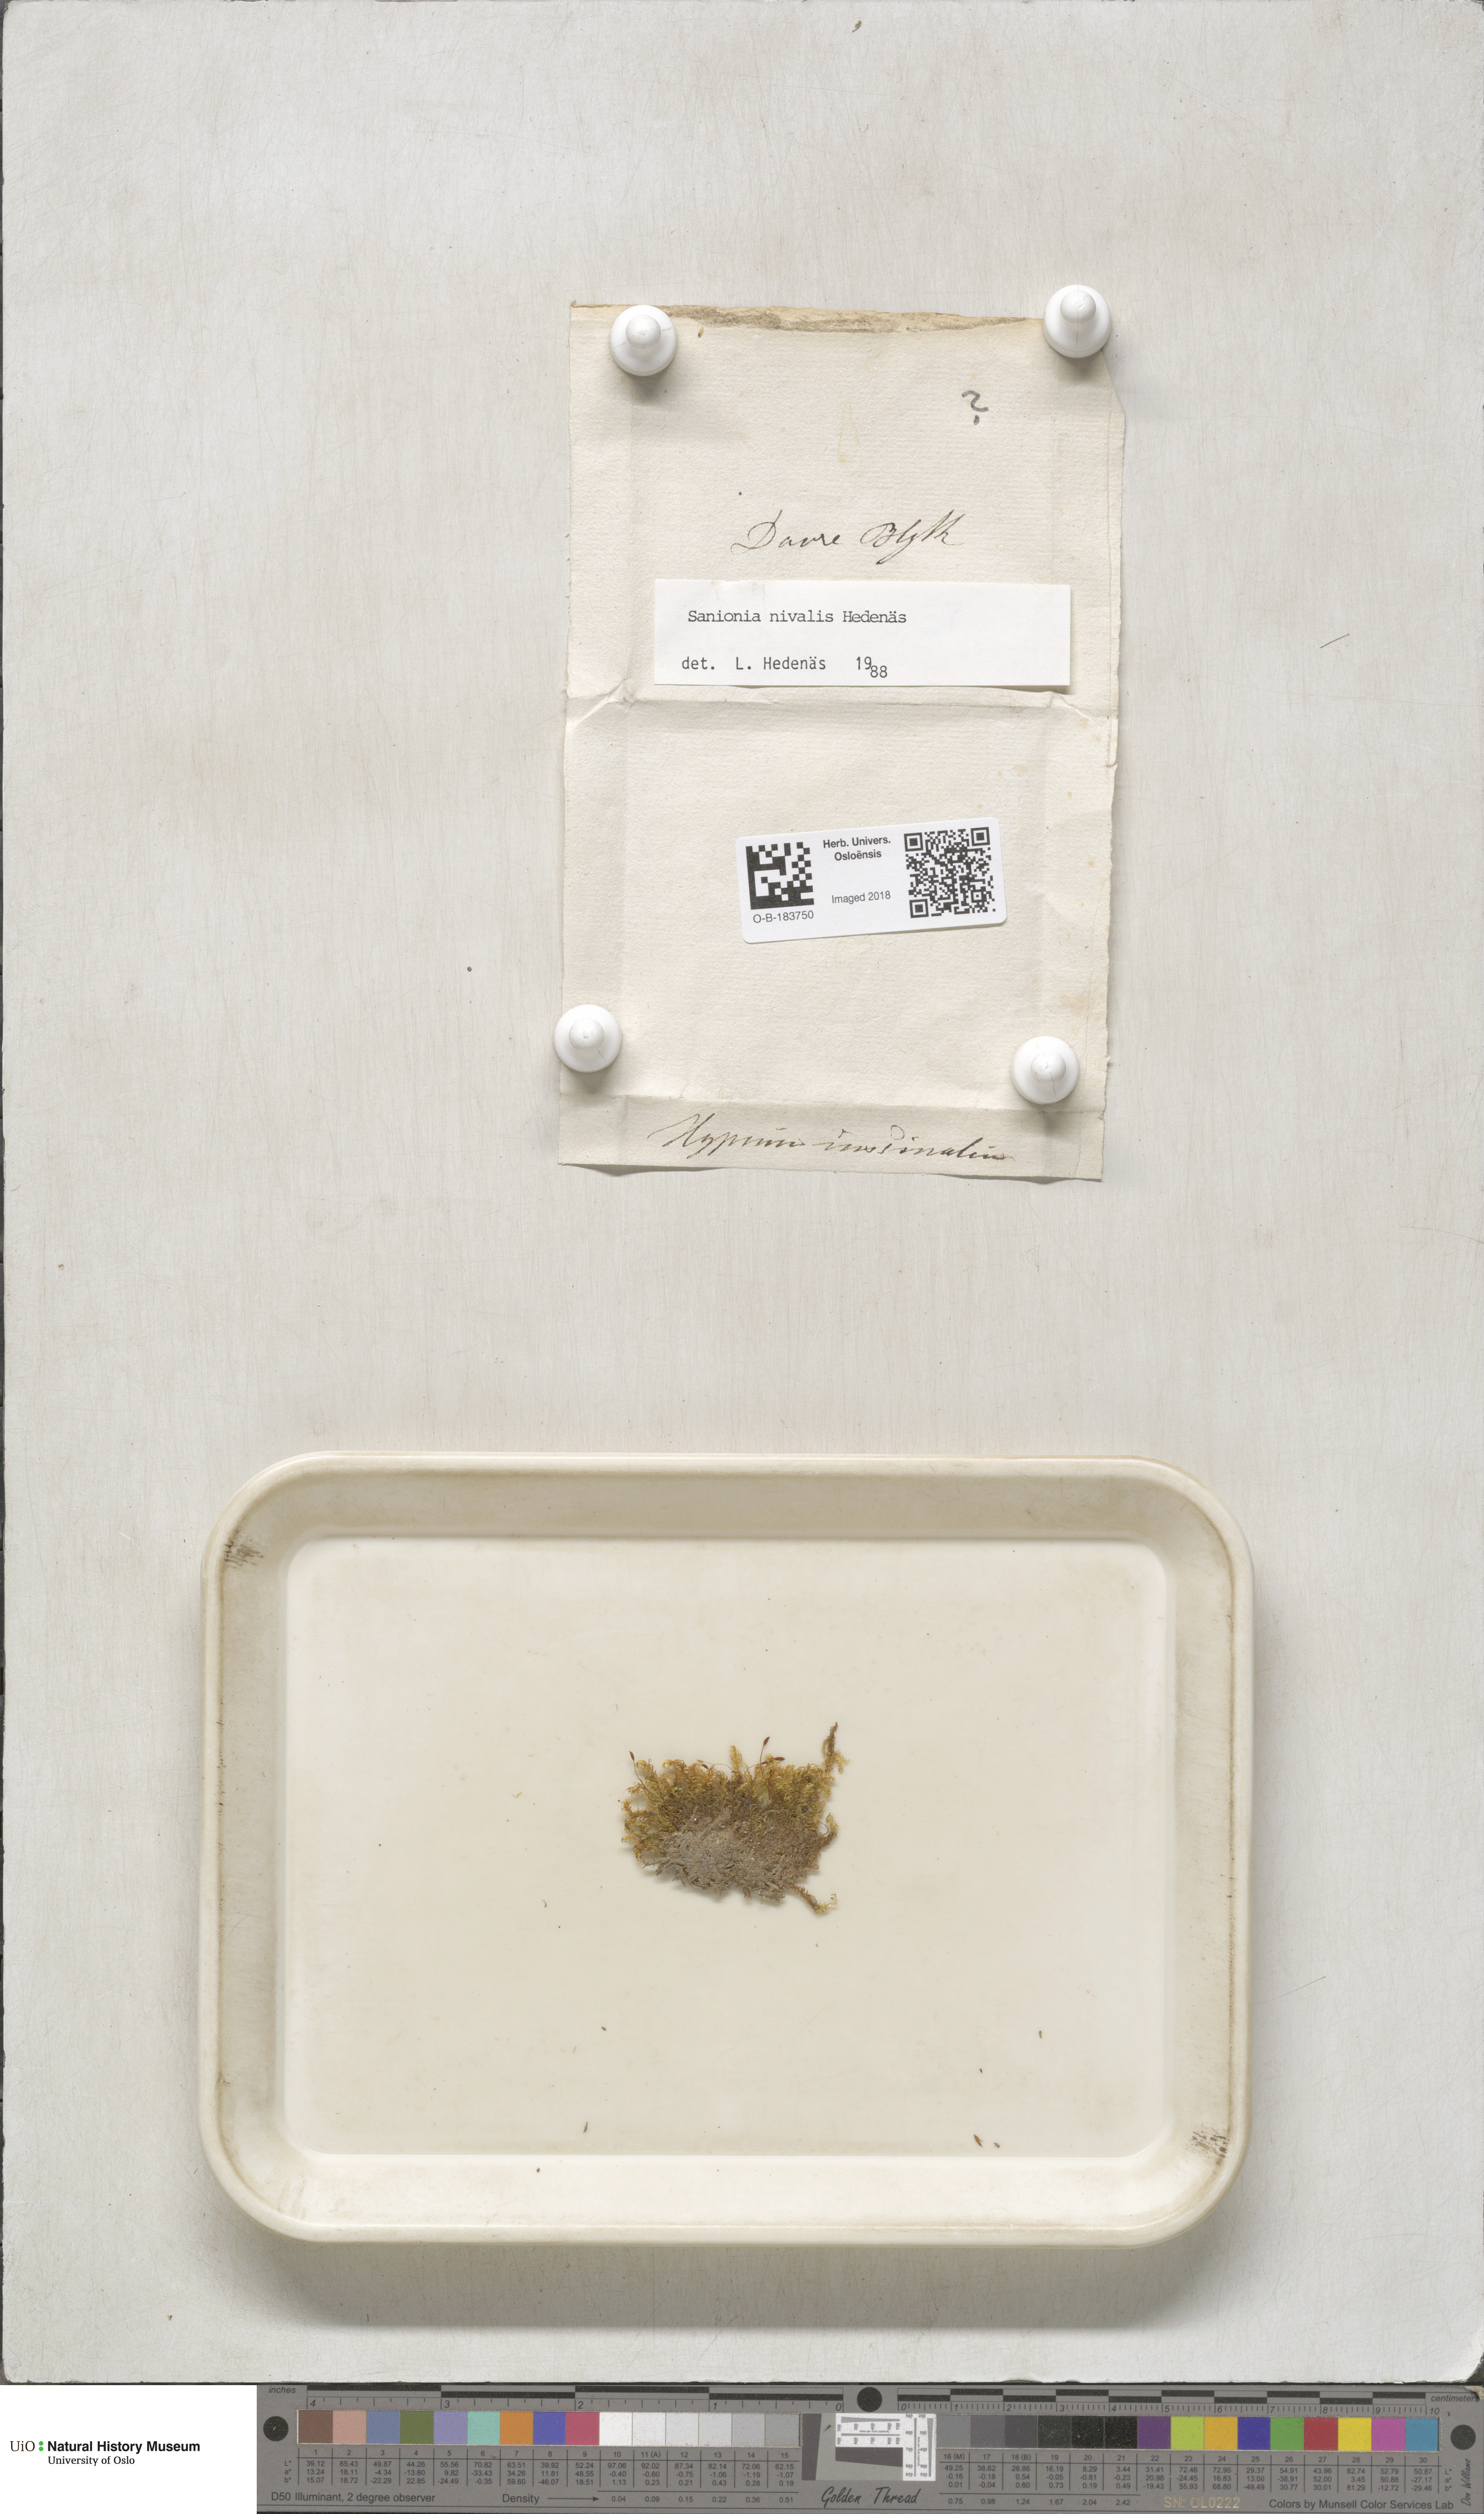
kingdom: Plantae
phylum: Bryophyta
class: Bryopsida
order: Hypnales
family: Scorpidiaceae
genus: Sanionia
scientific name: Sanionia uncinata
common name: Sickle moss
